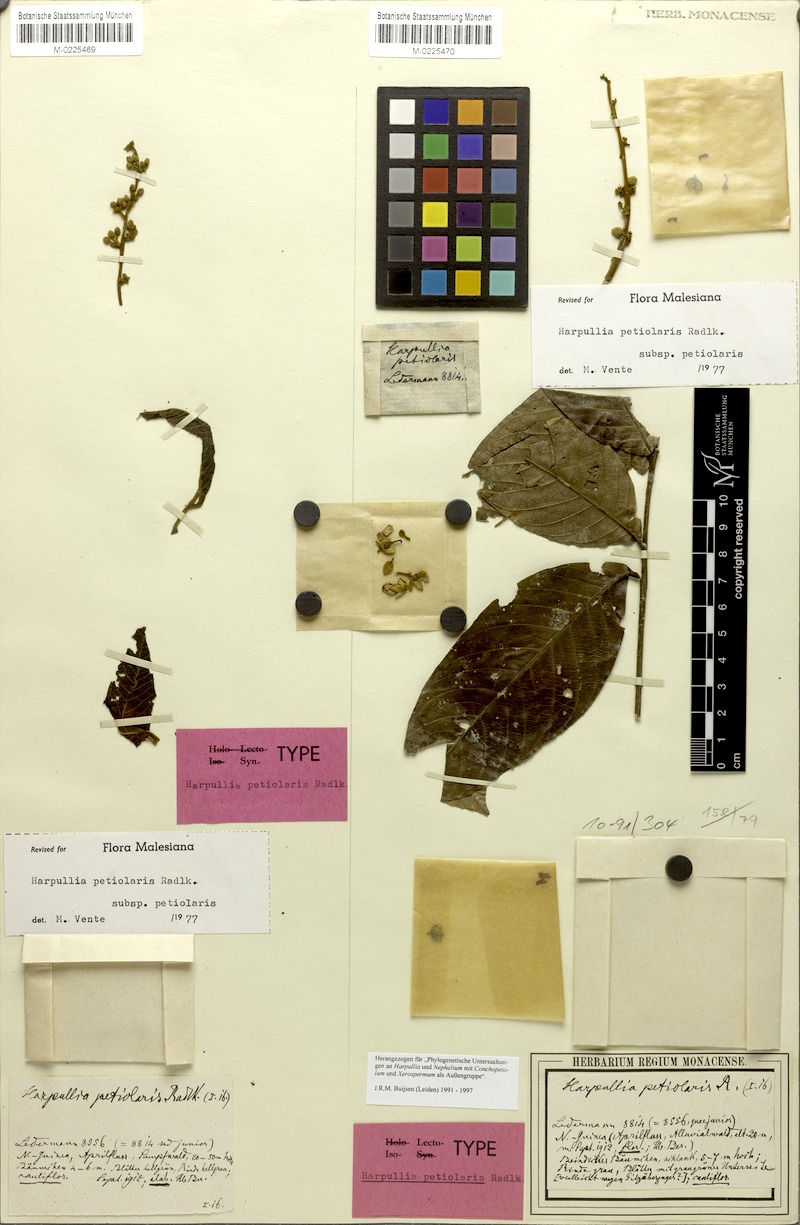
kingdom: Plantae
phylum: Tracheophyta
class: Magnoliopsida
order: Sapindales
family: Sapindaceae
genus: Harpullia
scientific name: Harpullia petiolaris
